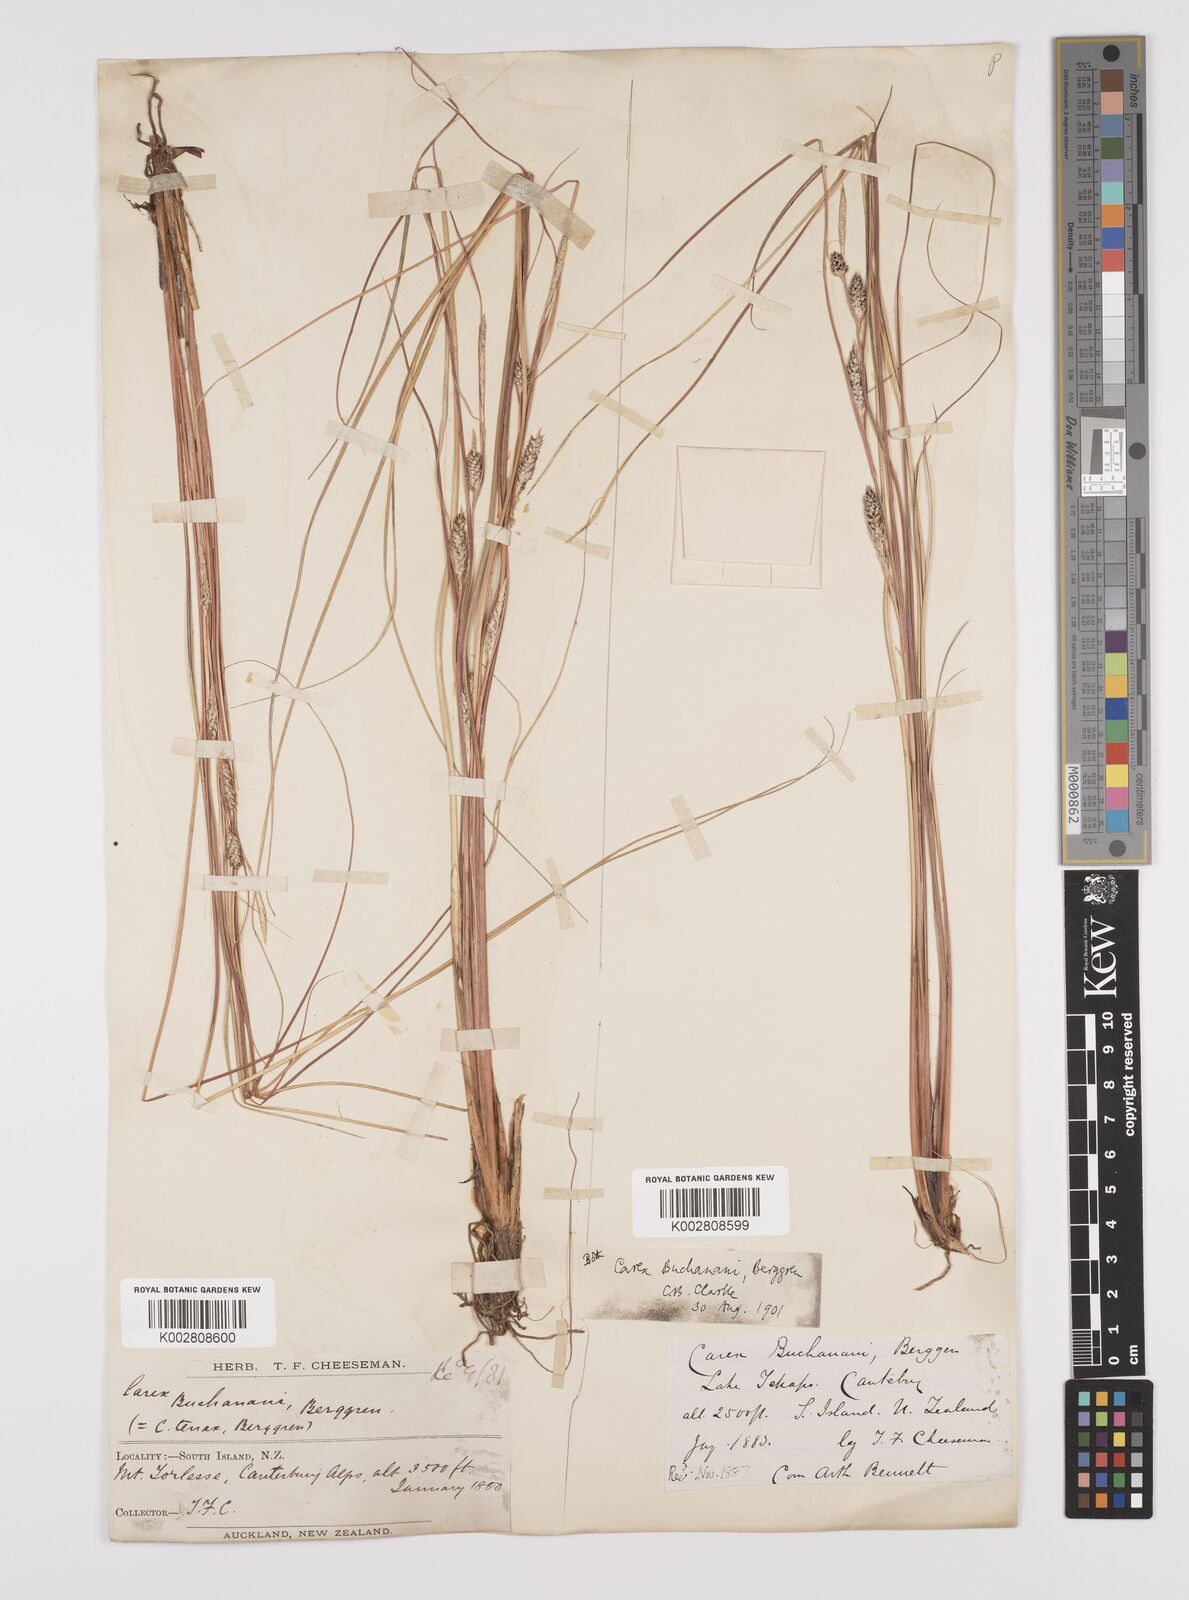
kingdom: Plantae
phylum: Tracheophyta
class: Liliopsida
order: Poales
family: Cyperaceae
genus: Carex
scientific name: Carex flagellifera
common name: Glen murray tussock
